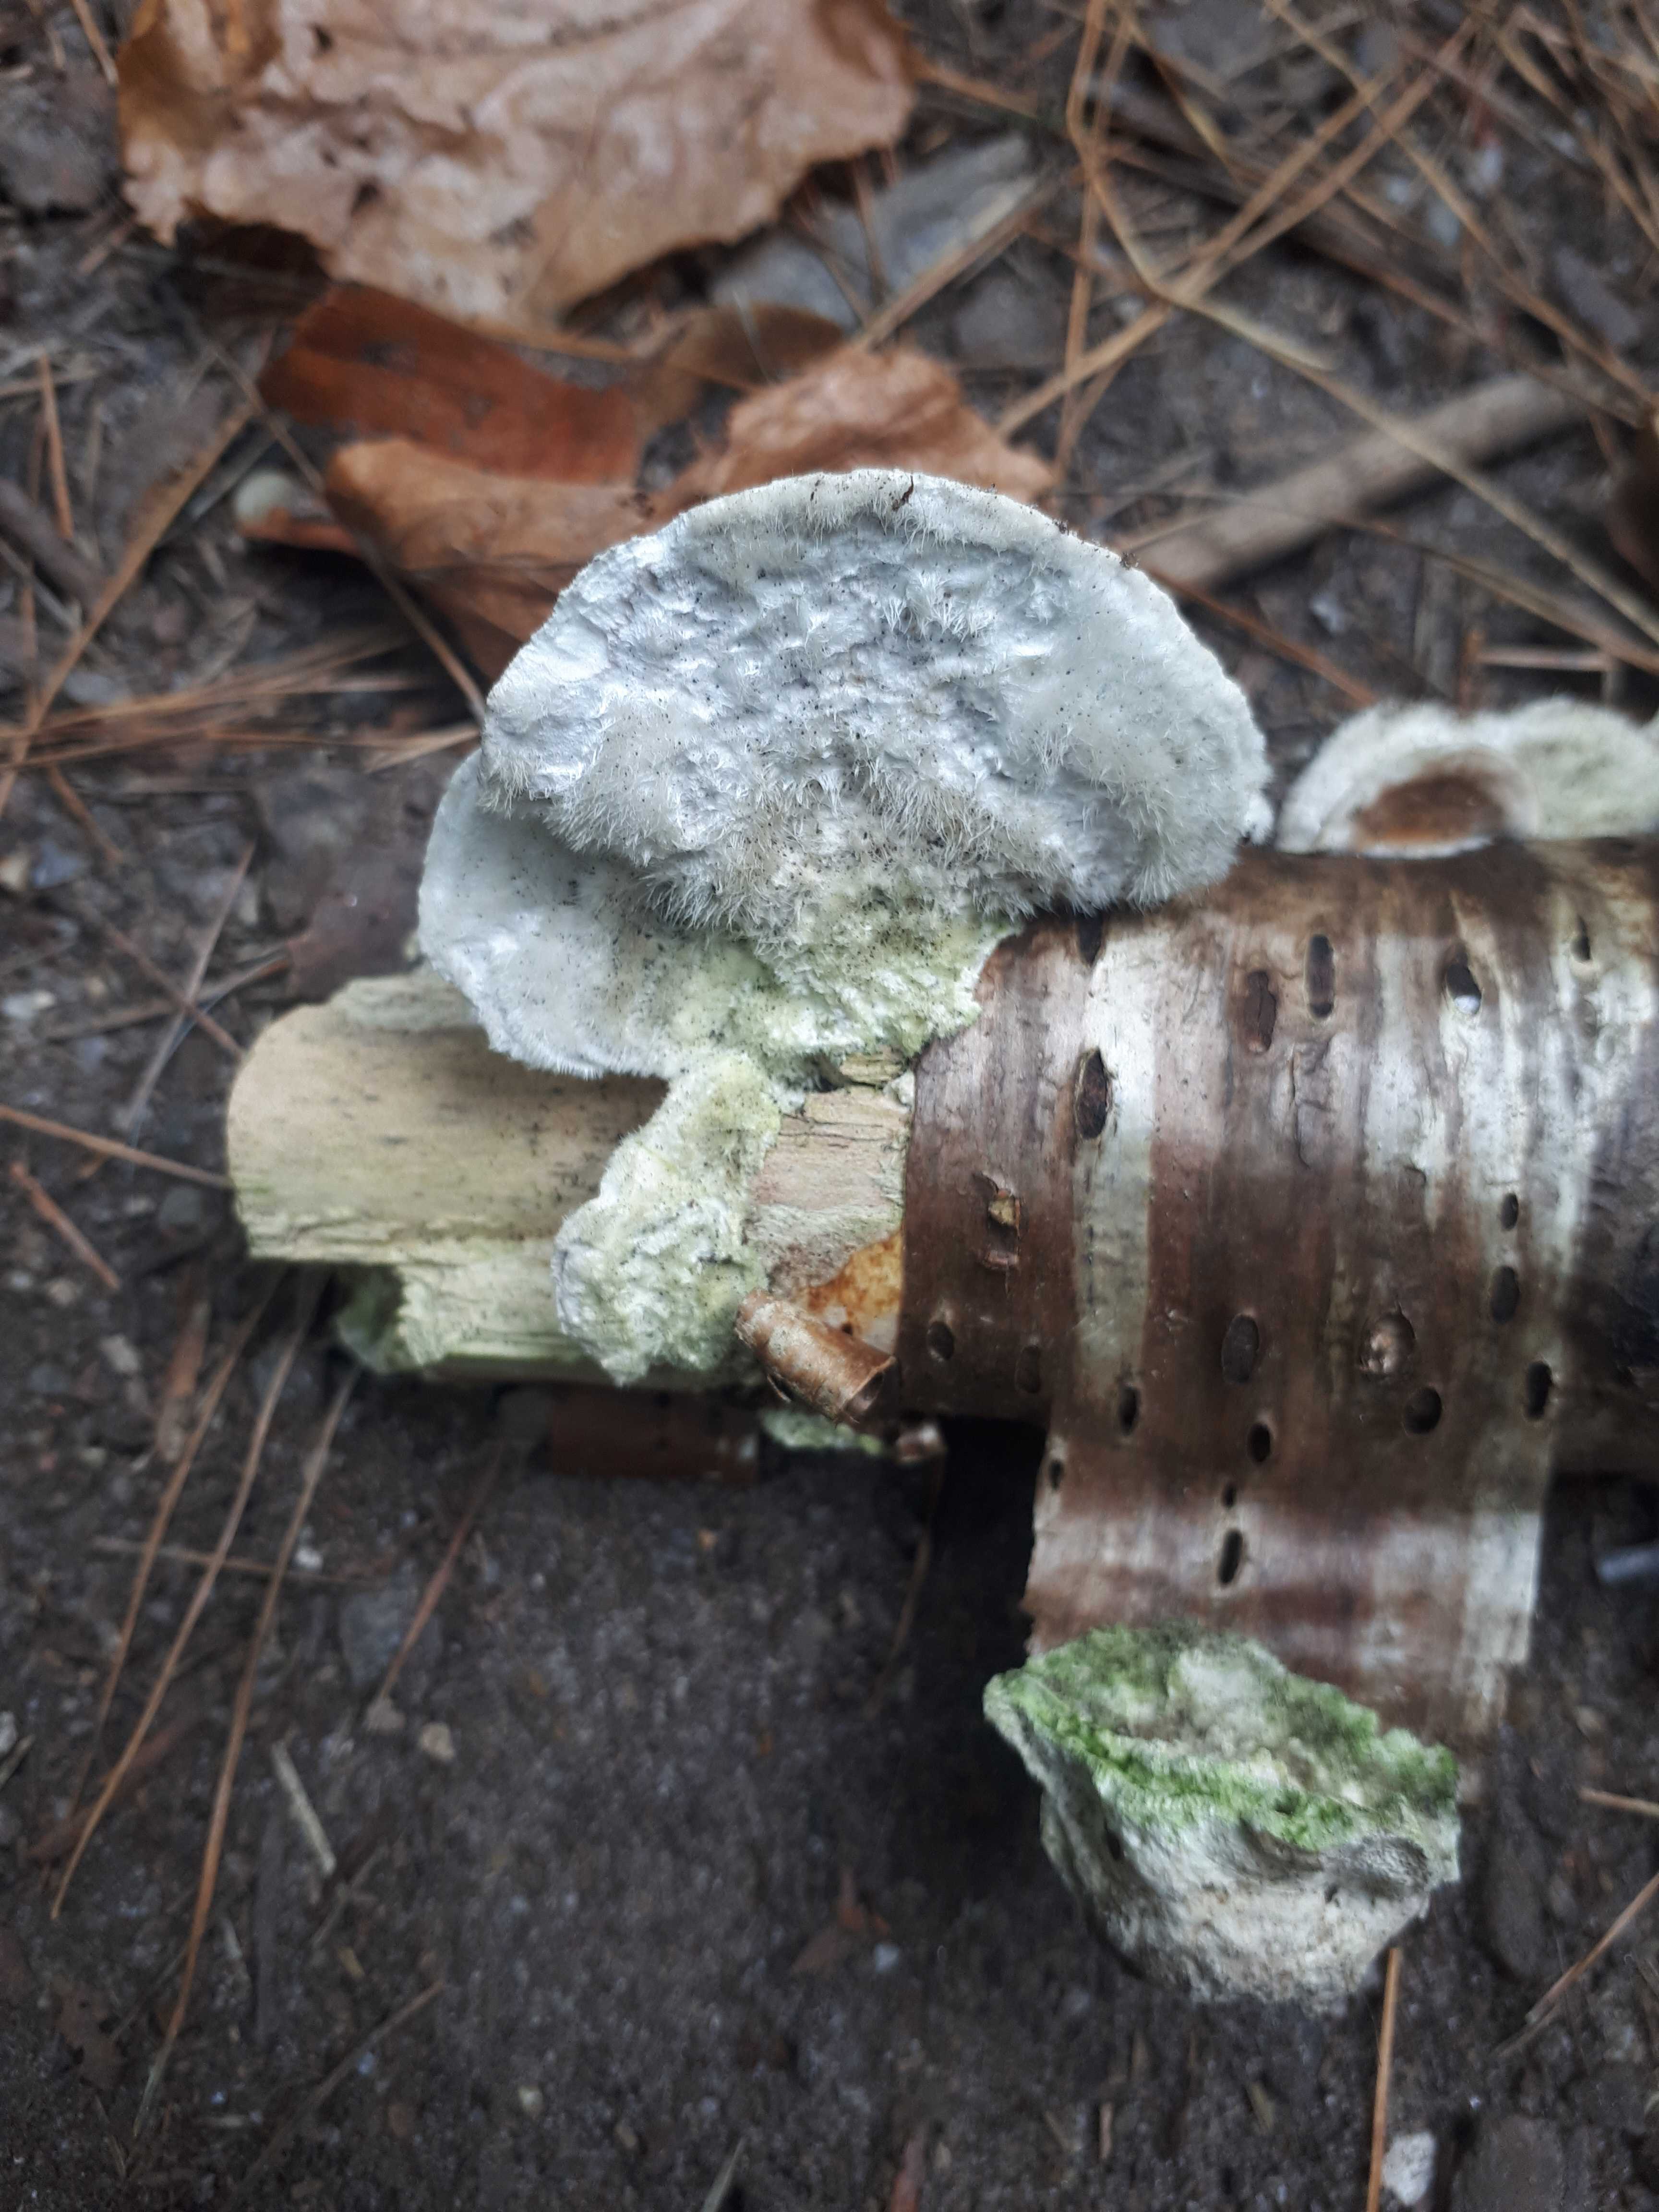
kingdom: Fungi
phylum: Basidiomycota
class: Agaricomycetes
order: Polyporales
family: Polyporaceae
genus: Trametes
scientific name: Trametes hirsuta
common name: håret læderporesvamp
